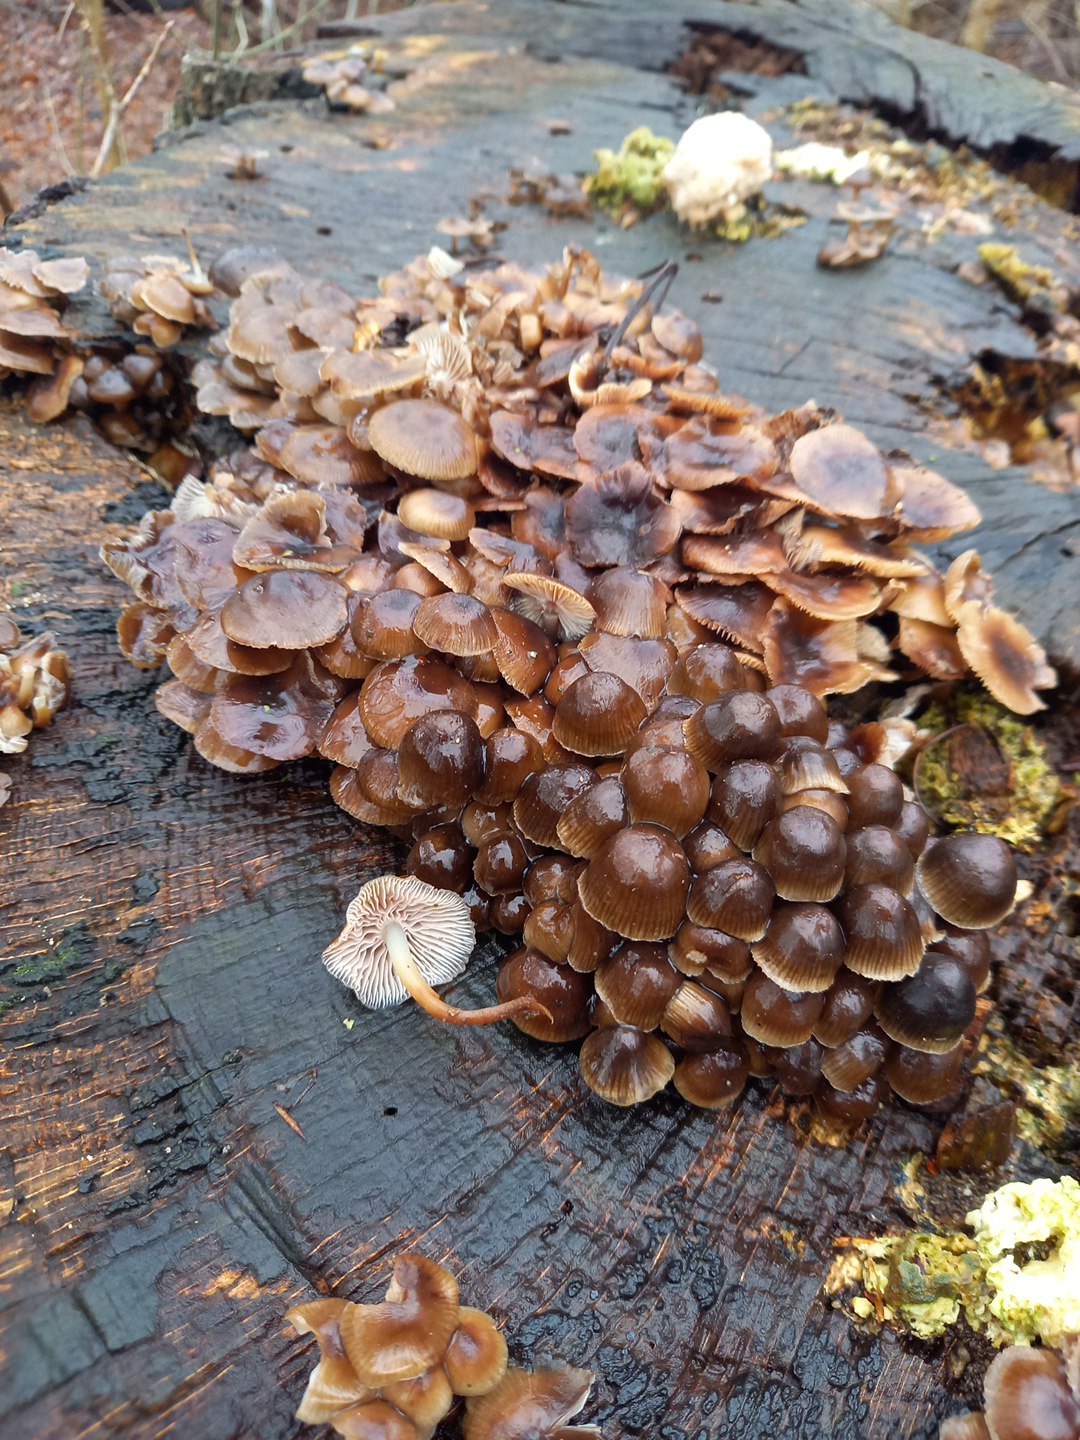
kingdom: Fungi
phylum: Basidiomycota
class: Agaricomycetes
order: Agaricales
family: Mycenaceae
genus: Mycena
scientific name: Mycena tintinnabulum
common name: vinter-huesvamp
